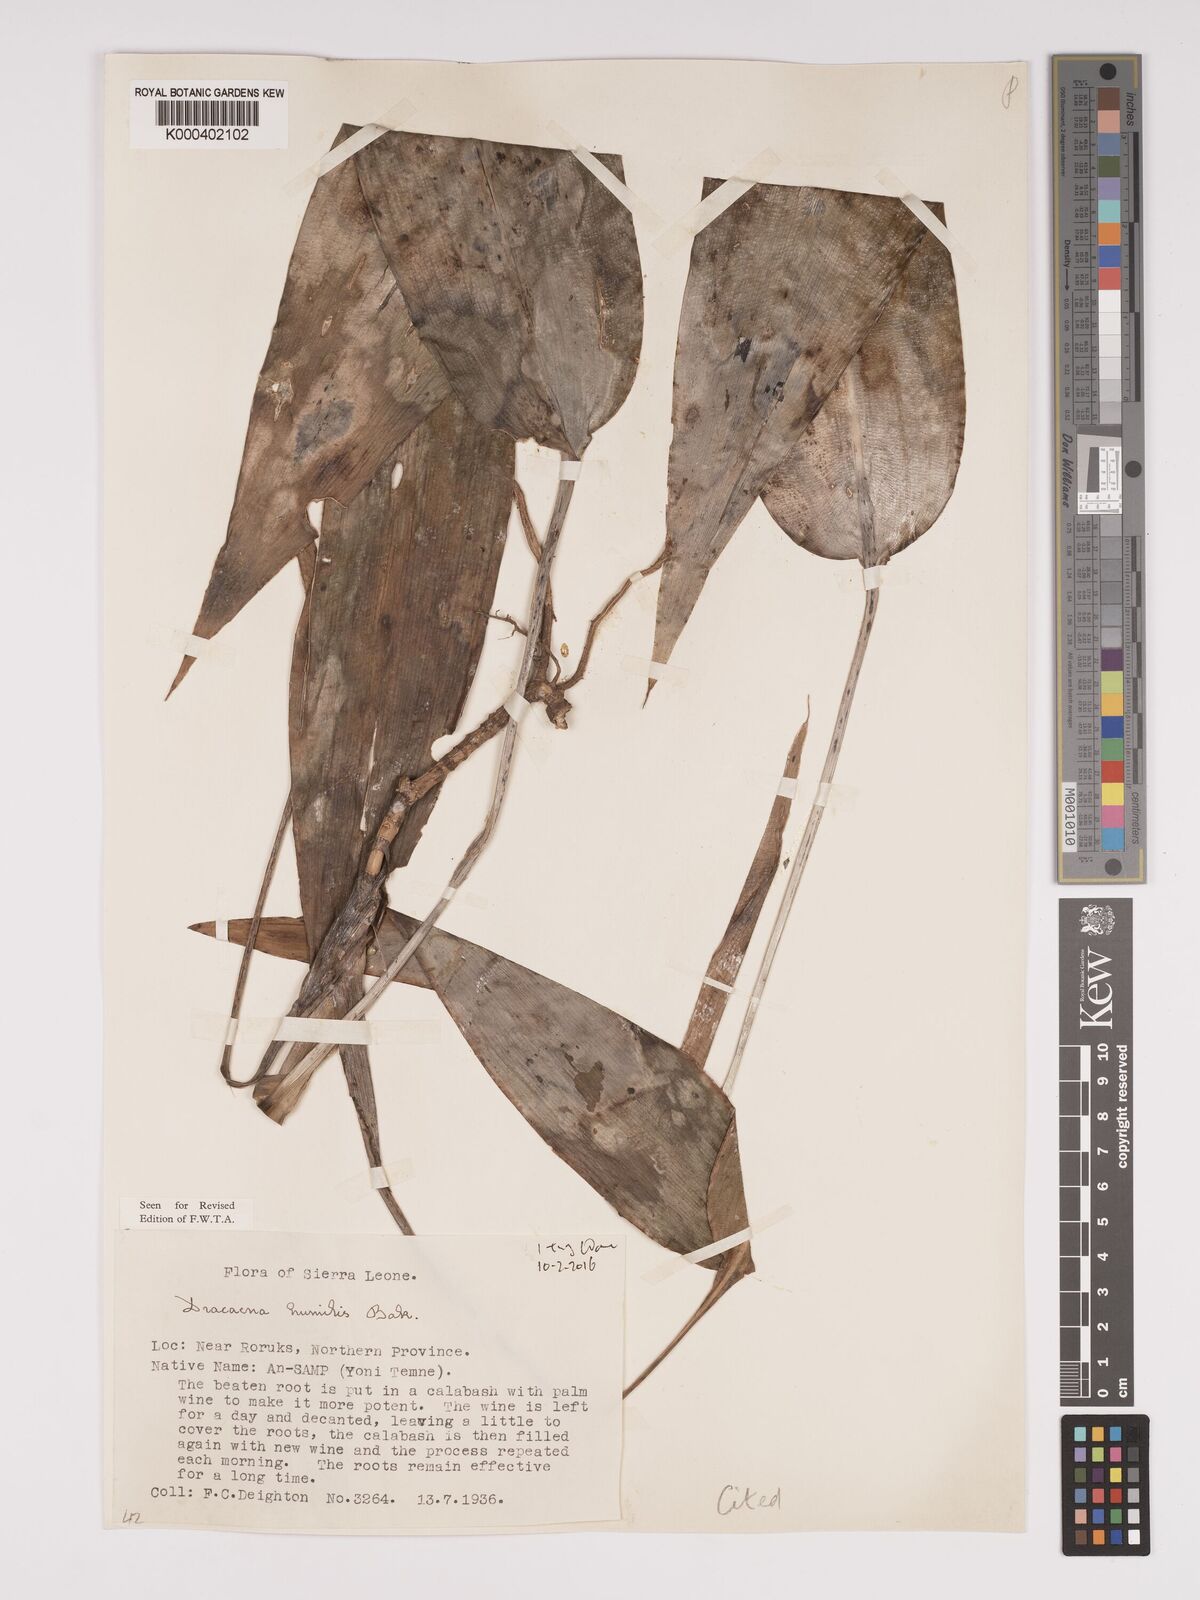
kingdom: Plantae
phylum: Tracheophyta
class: Liliopsida
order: Asparagales
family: Asparagaceae
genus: Dracaena
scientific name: Dracaena aubryana
